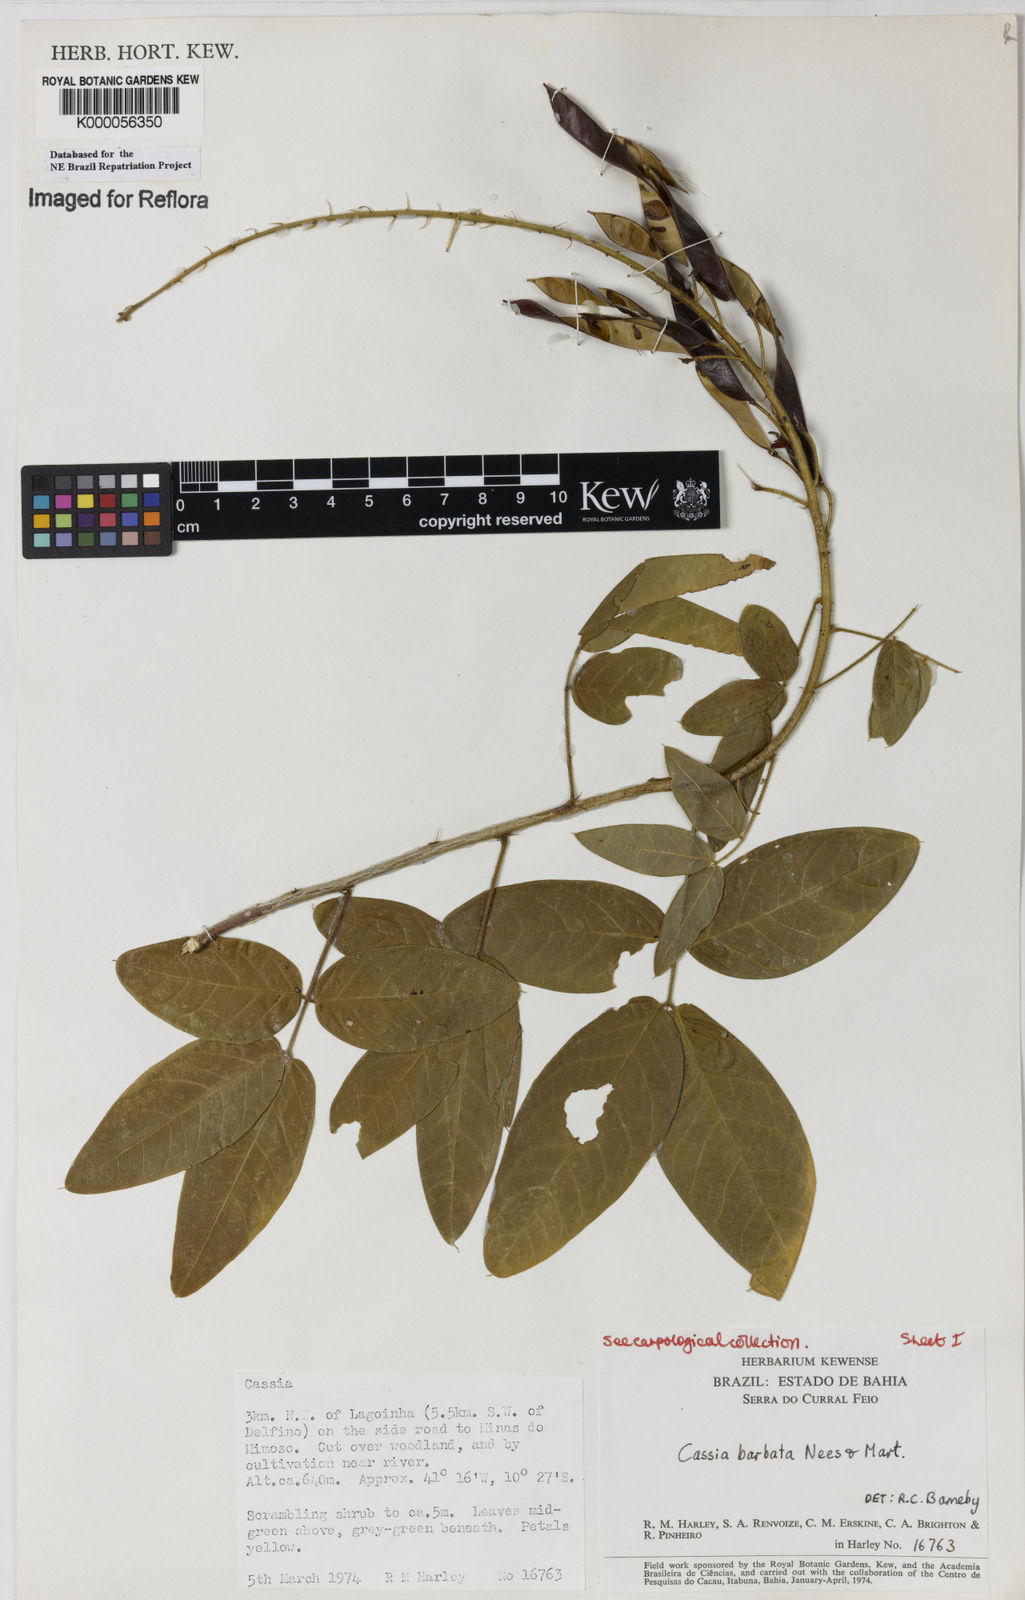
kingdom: Plantae
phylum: Tracheophyta
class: Magnoliopsida
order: Fabales
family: Fabaceae
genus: Chamaecrista
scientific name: Chamaecrista barbata
